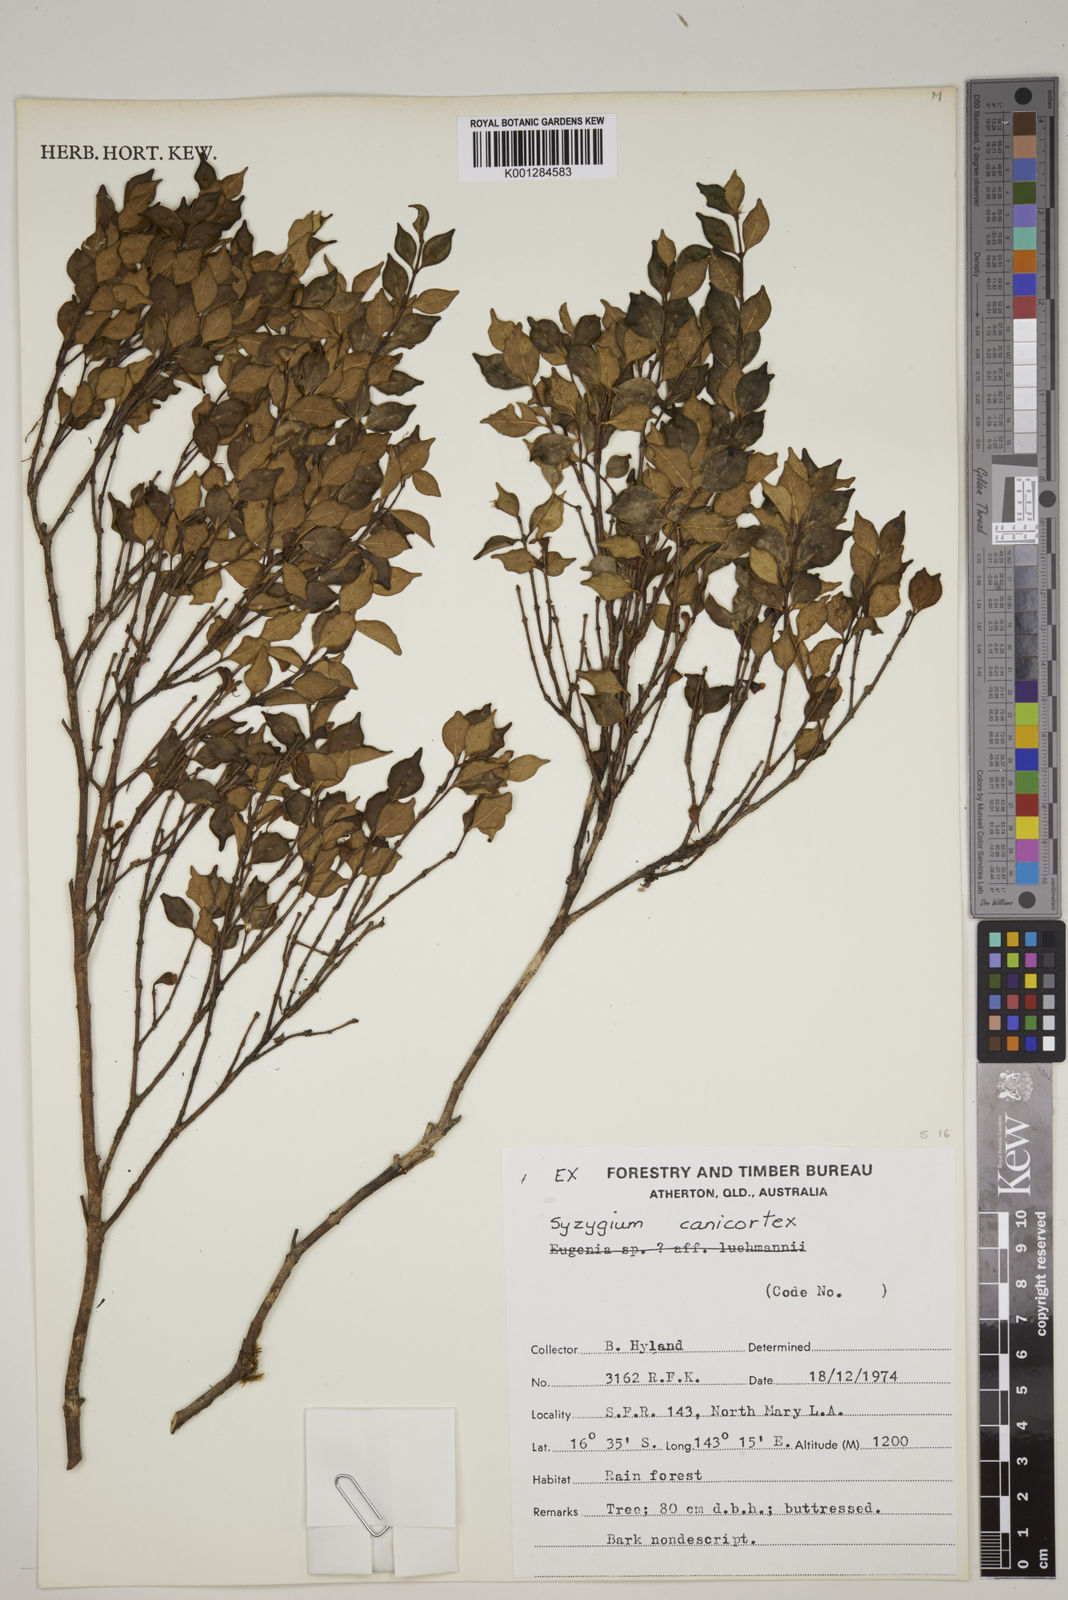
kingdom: Plantae
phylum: Tracheophyta
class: Magnoliopsida
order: Myrtales
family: Myrtaceae
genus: Syzygium
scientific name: Syzygium canicortex
